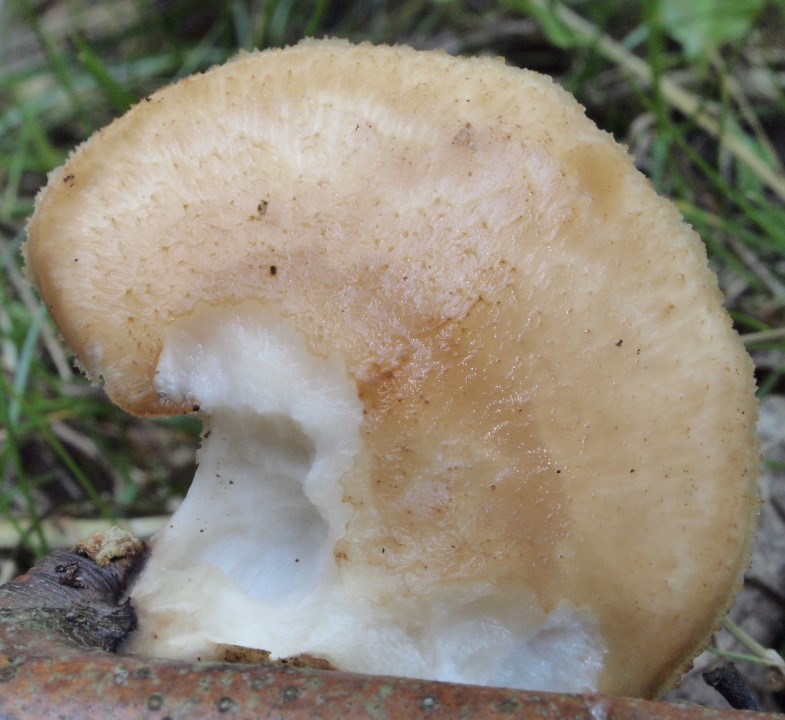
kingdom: Fungi
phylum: Basidiomycota
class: Agaricomycetes
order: Polyporales
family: Polyporaceae
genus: Polyporus
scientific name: Polyporus tuberaster
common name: knoldet stilkporesvamp
